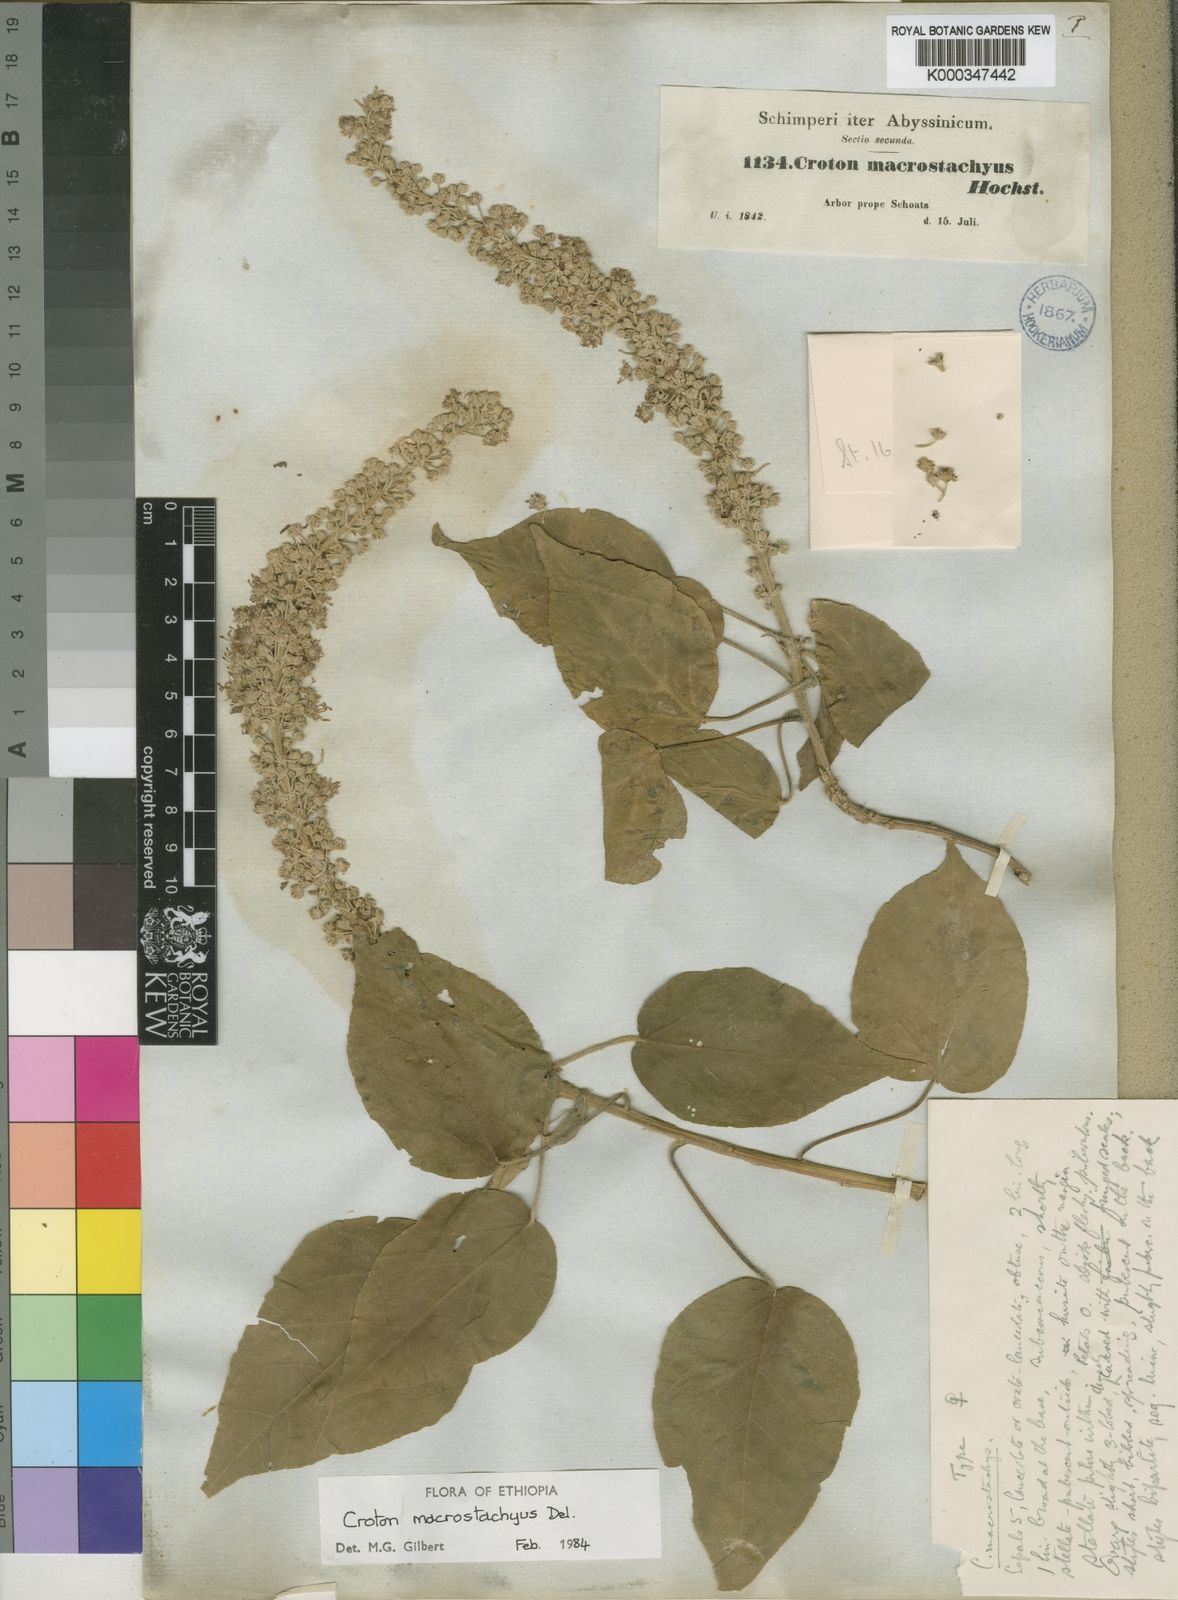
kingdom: Plantae
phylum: Tracheophyta
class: Magnoliopsida
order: Malpighiales
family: Euphorbiaceae
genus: Croton
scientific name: Croton macrostachyus
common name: Mutundu
